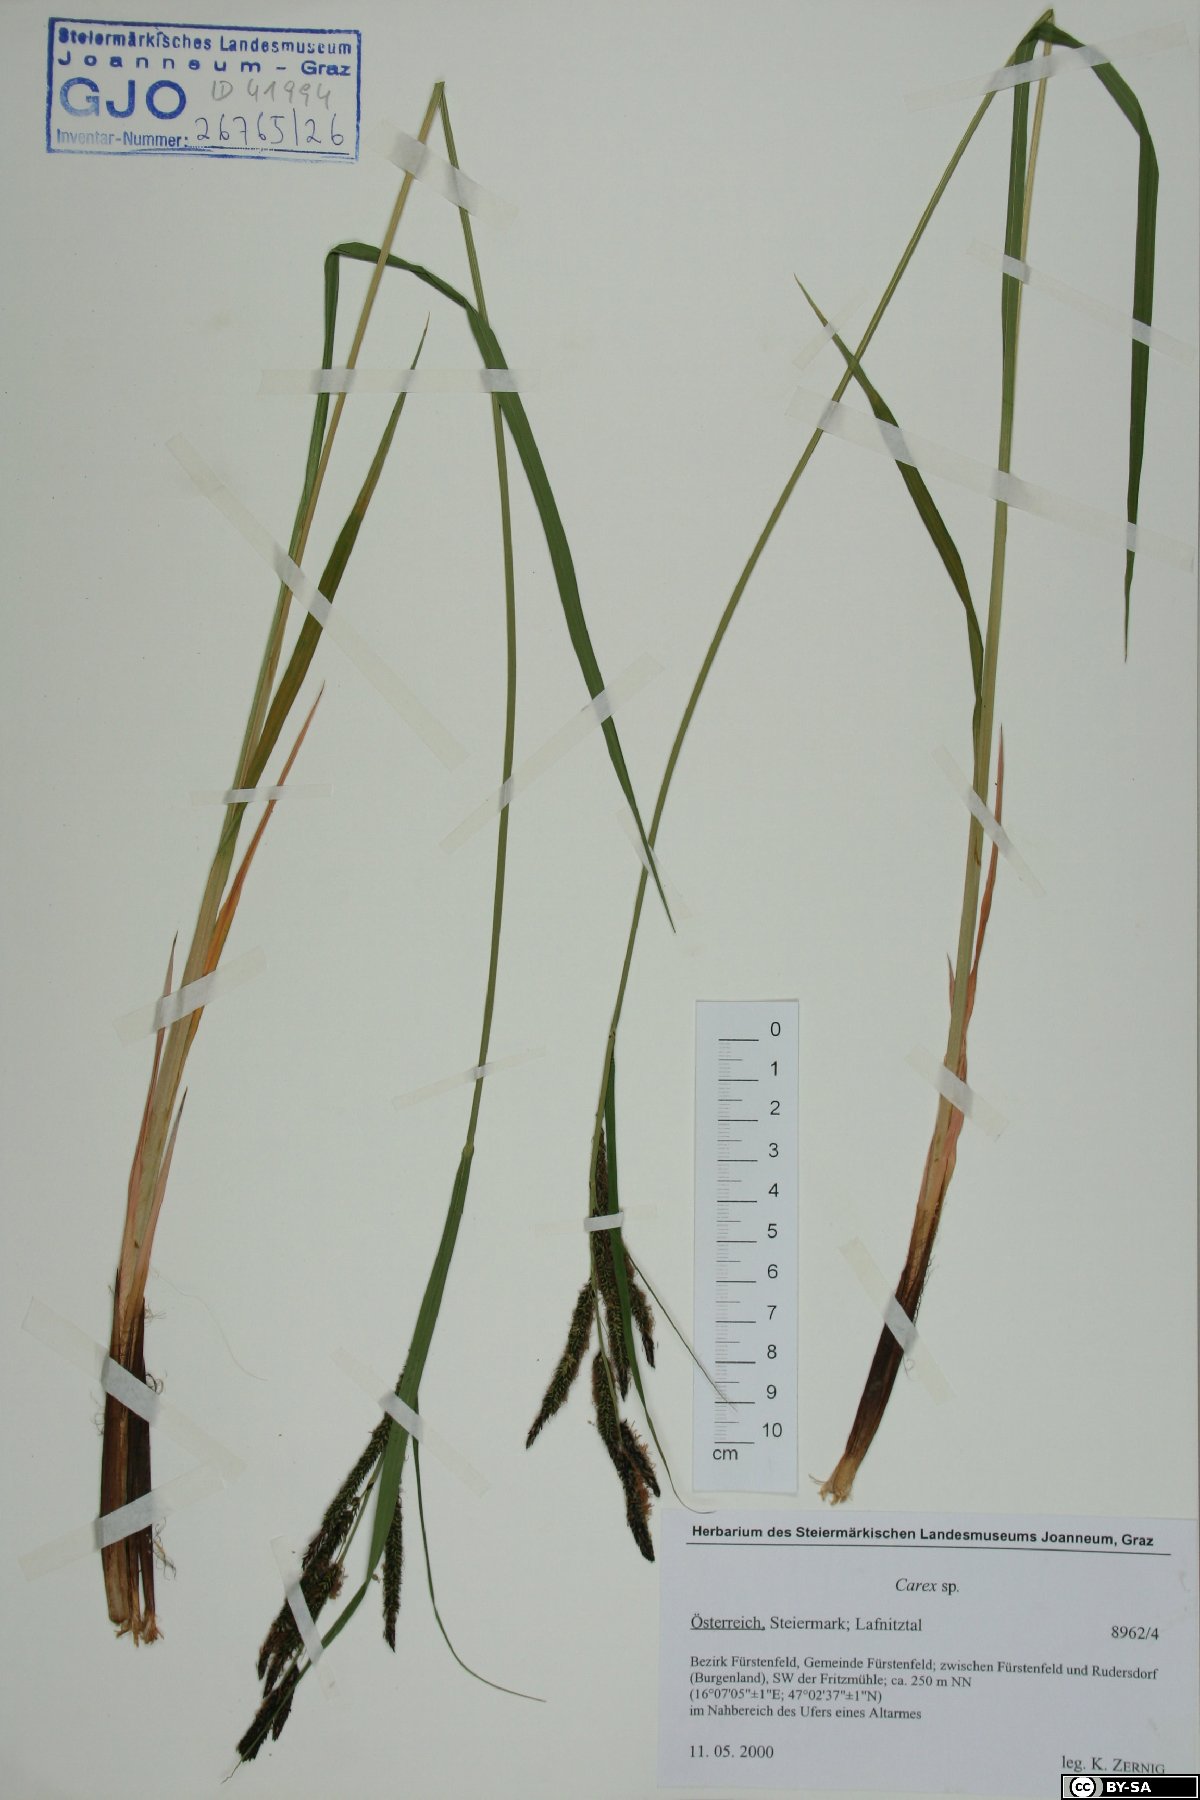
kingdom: Plantae
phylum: Tracheophyta
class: Liliopsida
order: Poales
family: Cyperaceae
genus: Carex
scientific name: Carex
